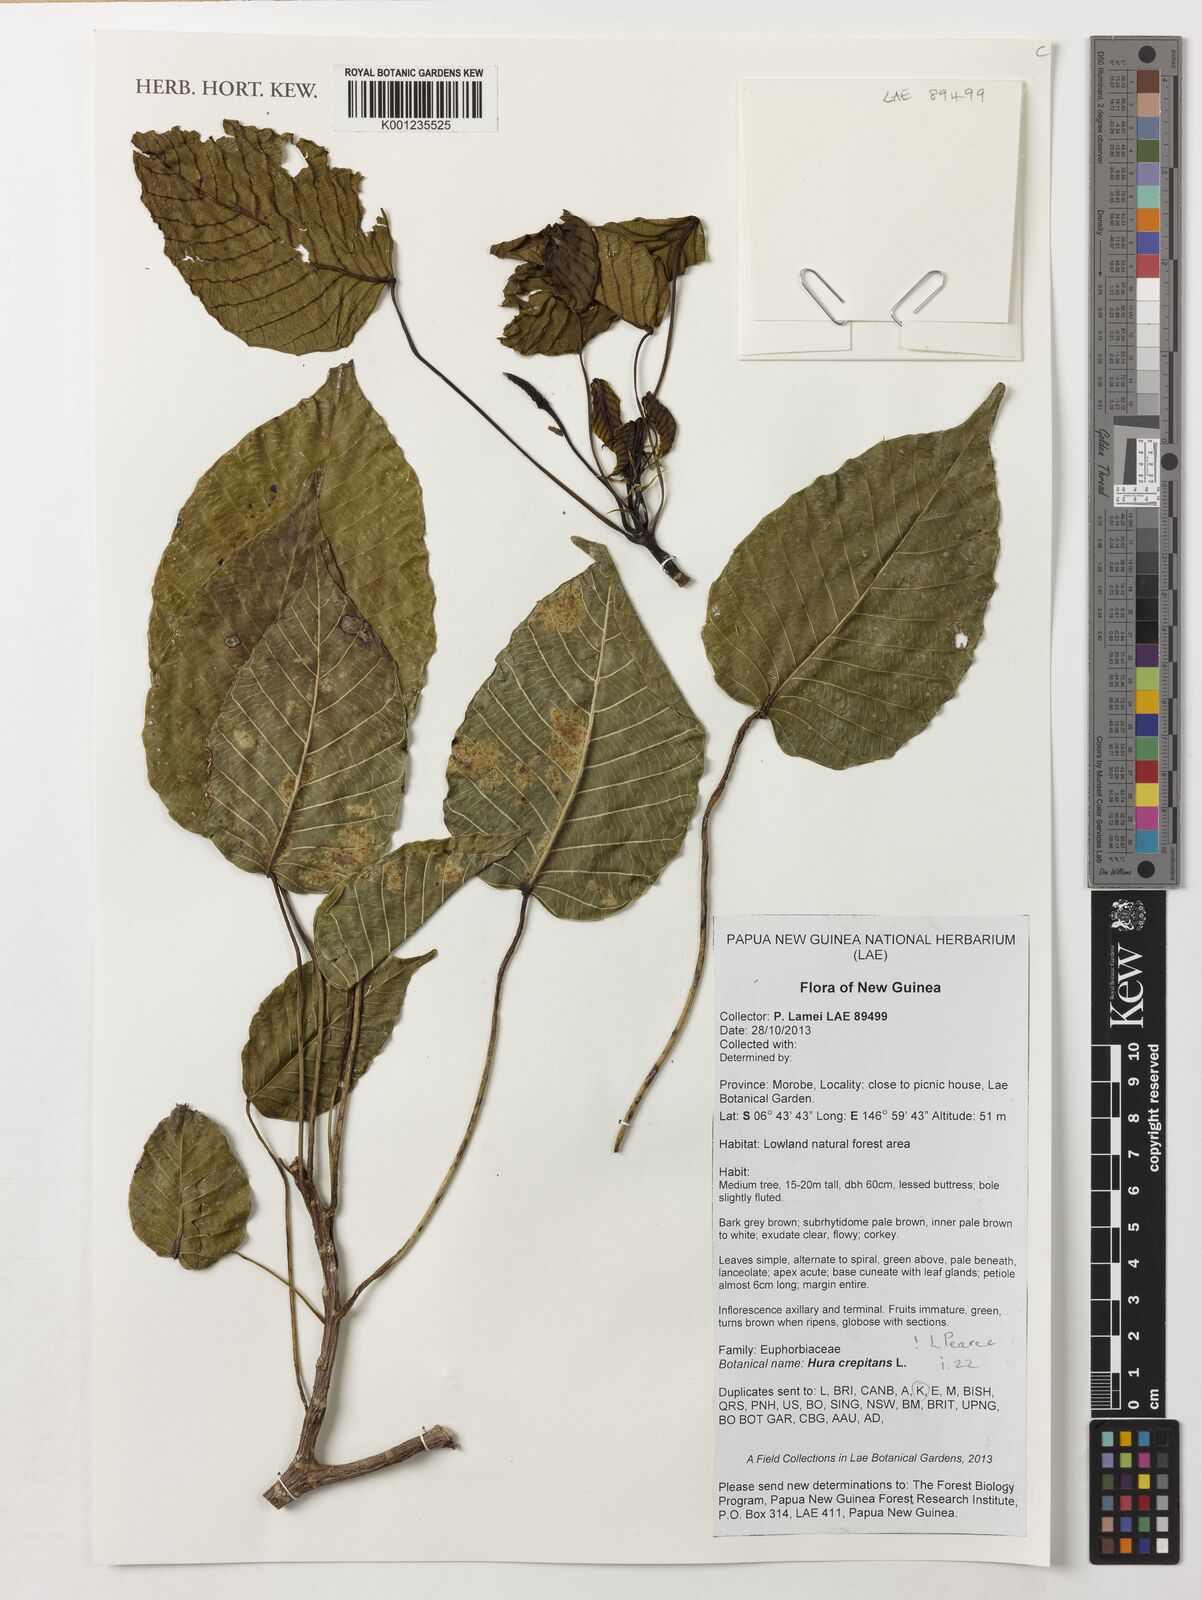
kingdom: Plantae
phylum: Tracheophyta
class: Magnoliopsida
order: Malpighiales
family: Euphorbiaceae
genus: Hura
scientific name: Hura crepitans
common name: Sandboxtree
